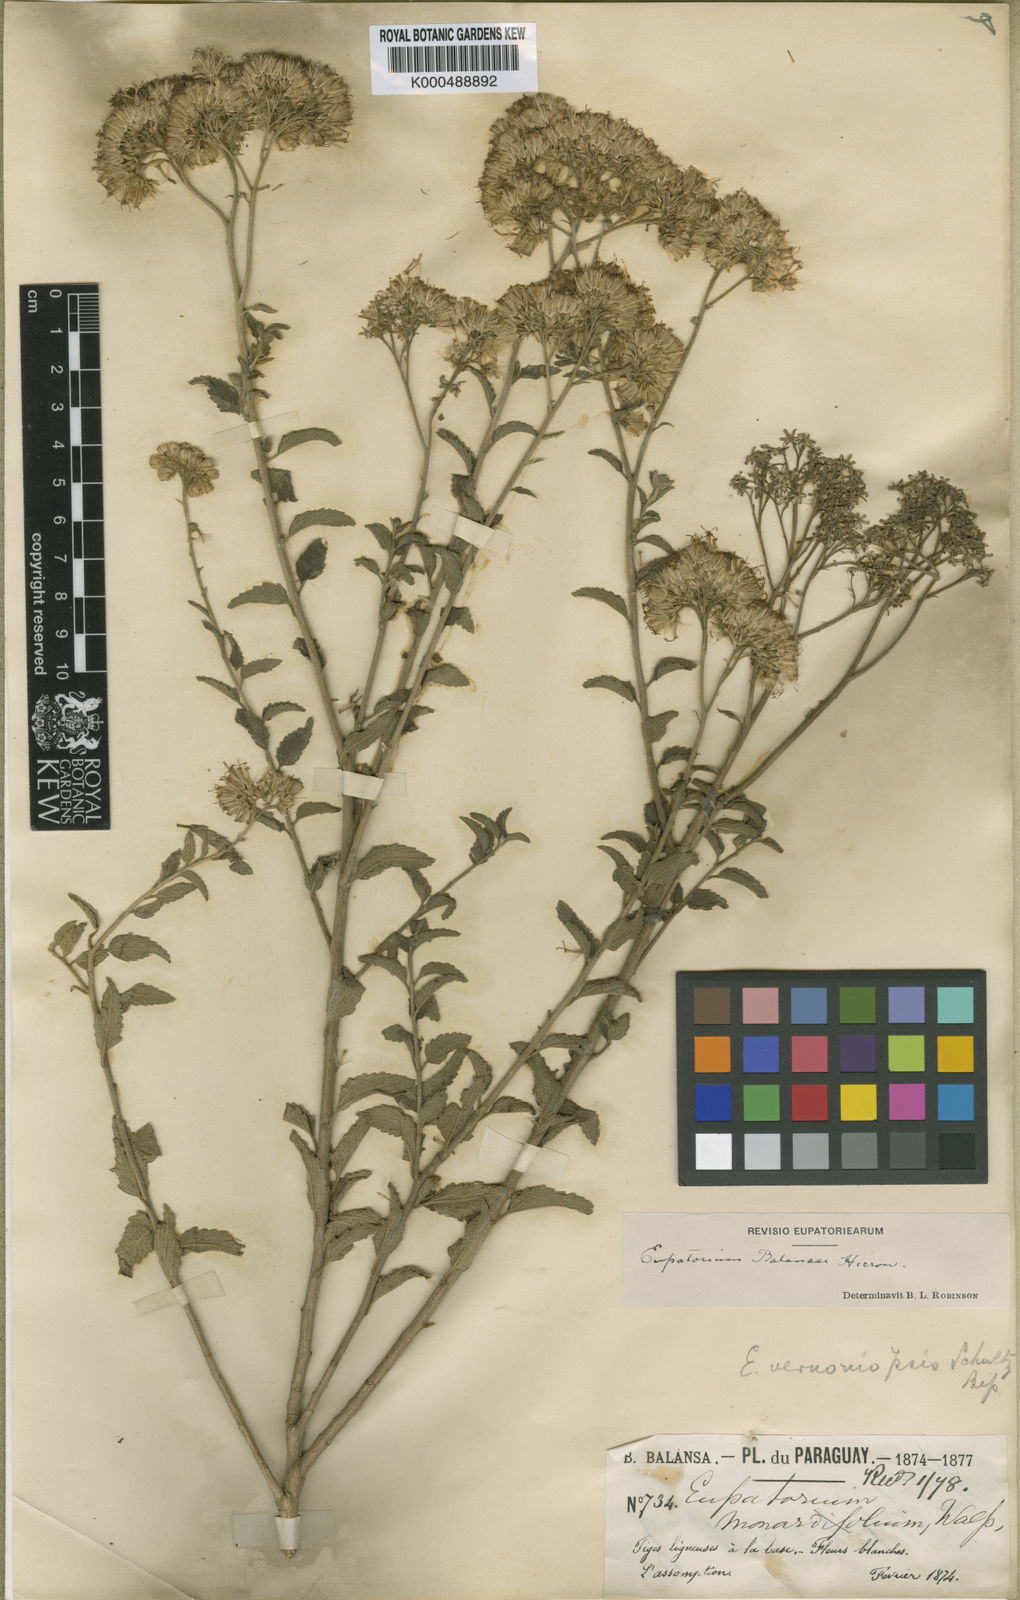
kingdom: Plantae
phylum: Tracheophyta
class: Magnoliopsida
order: Asterales
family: Asteraceae
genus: Bejaranoa
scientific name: Bejaranoa balansae
